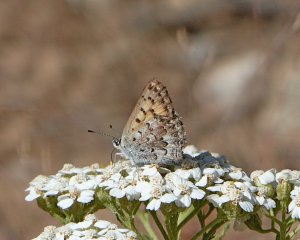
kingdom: Animalia
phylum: Arthropoda
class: Insecta
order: Lepidoptera
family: Lycaenidae
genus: Lycaena
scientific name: Lycaena mariposa
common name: Mariposa Copper
